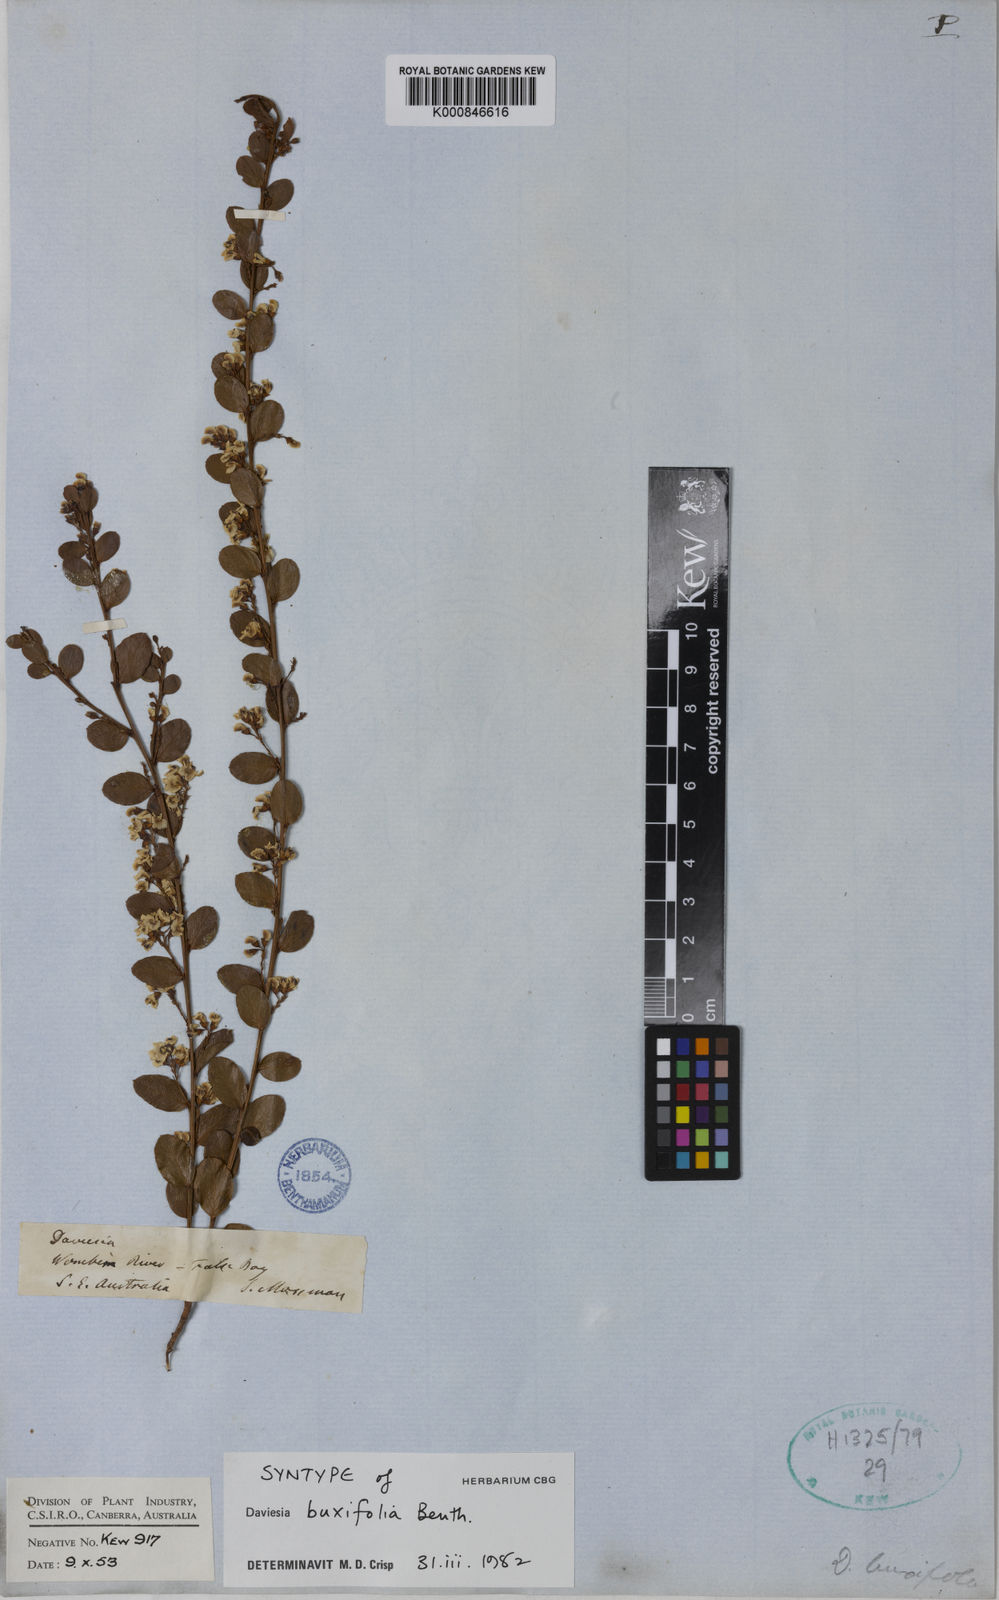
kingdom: Plantae
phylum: Tracheophyta
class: Magnoliopsida
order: Fabales
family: Fabaceae
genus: Daviesia
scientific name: Daviesia mimosoides
